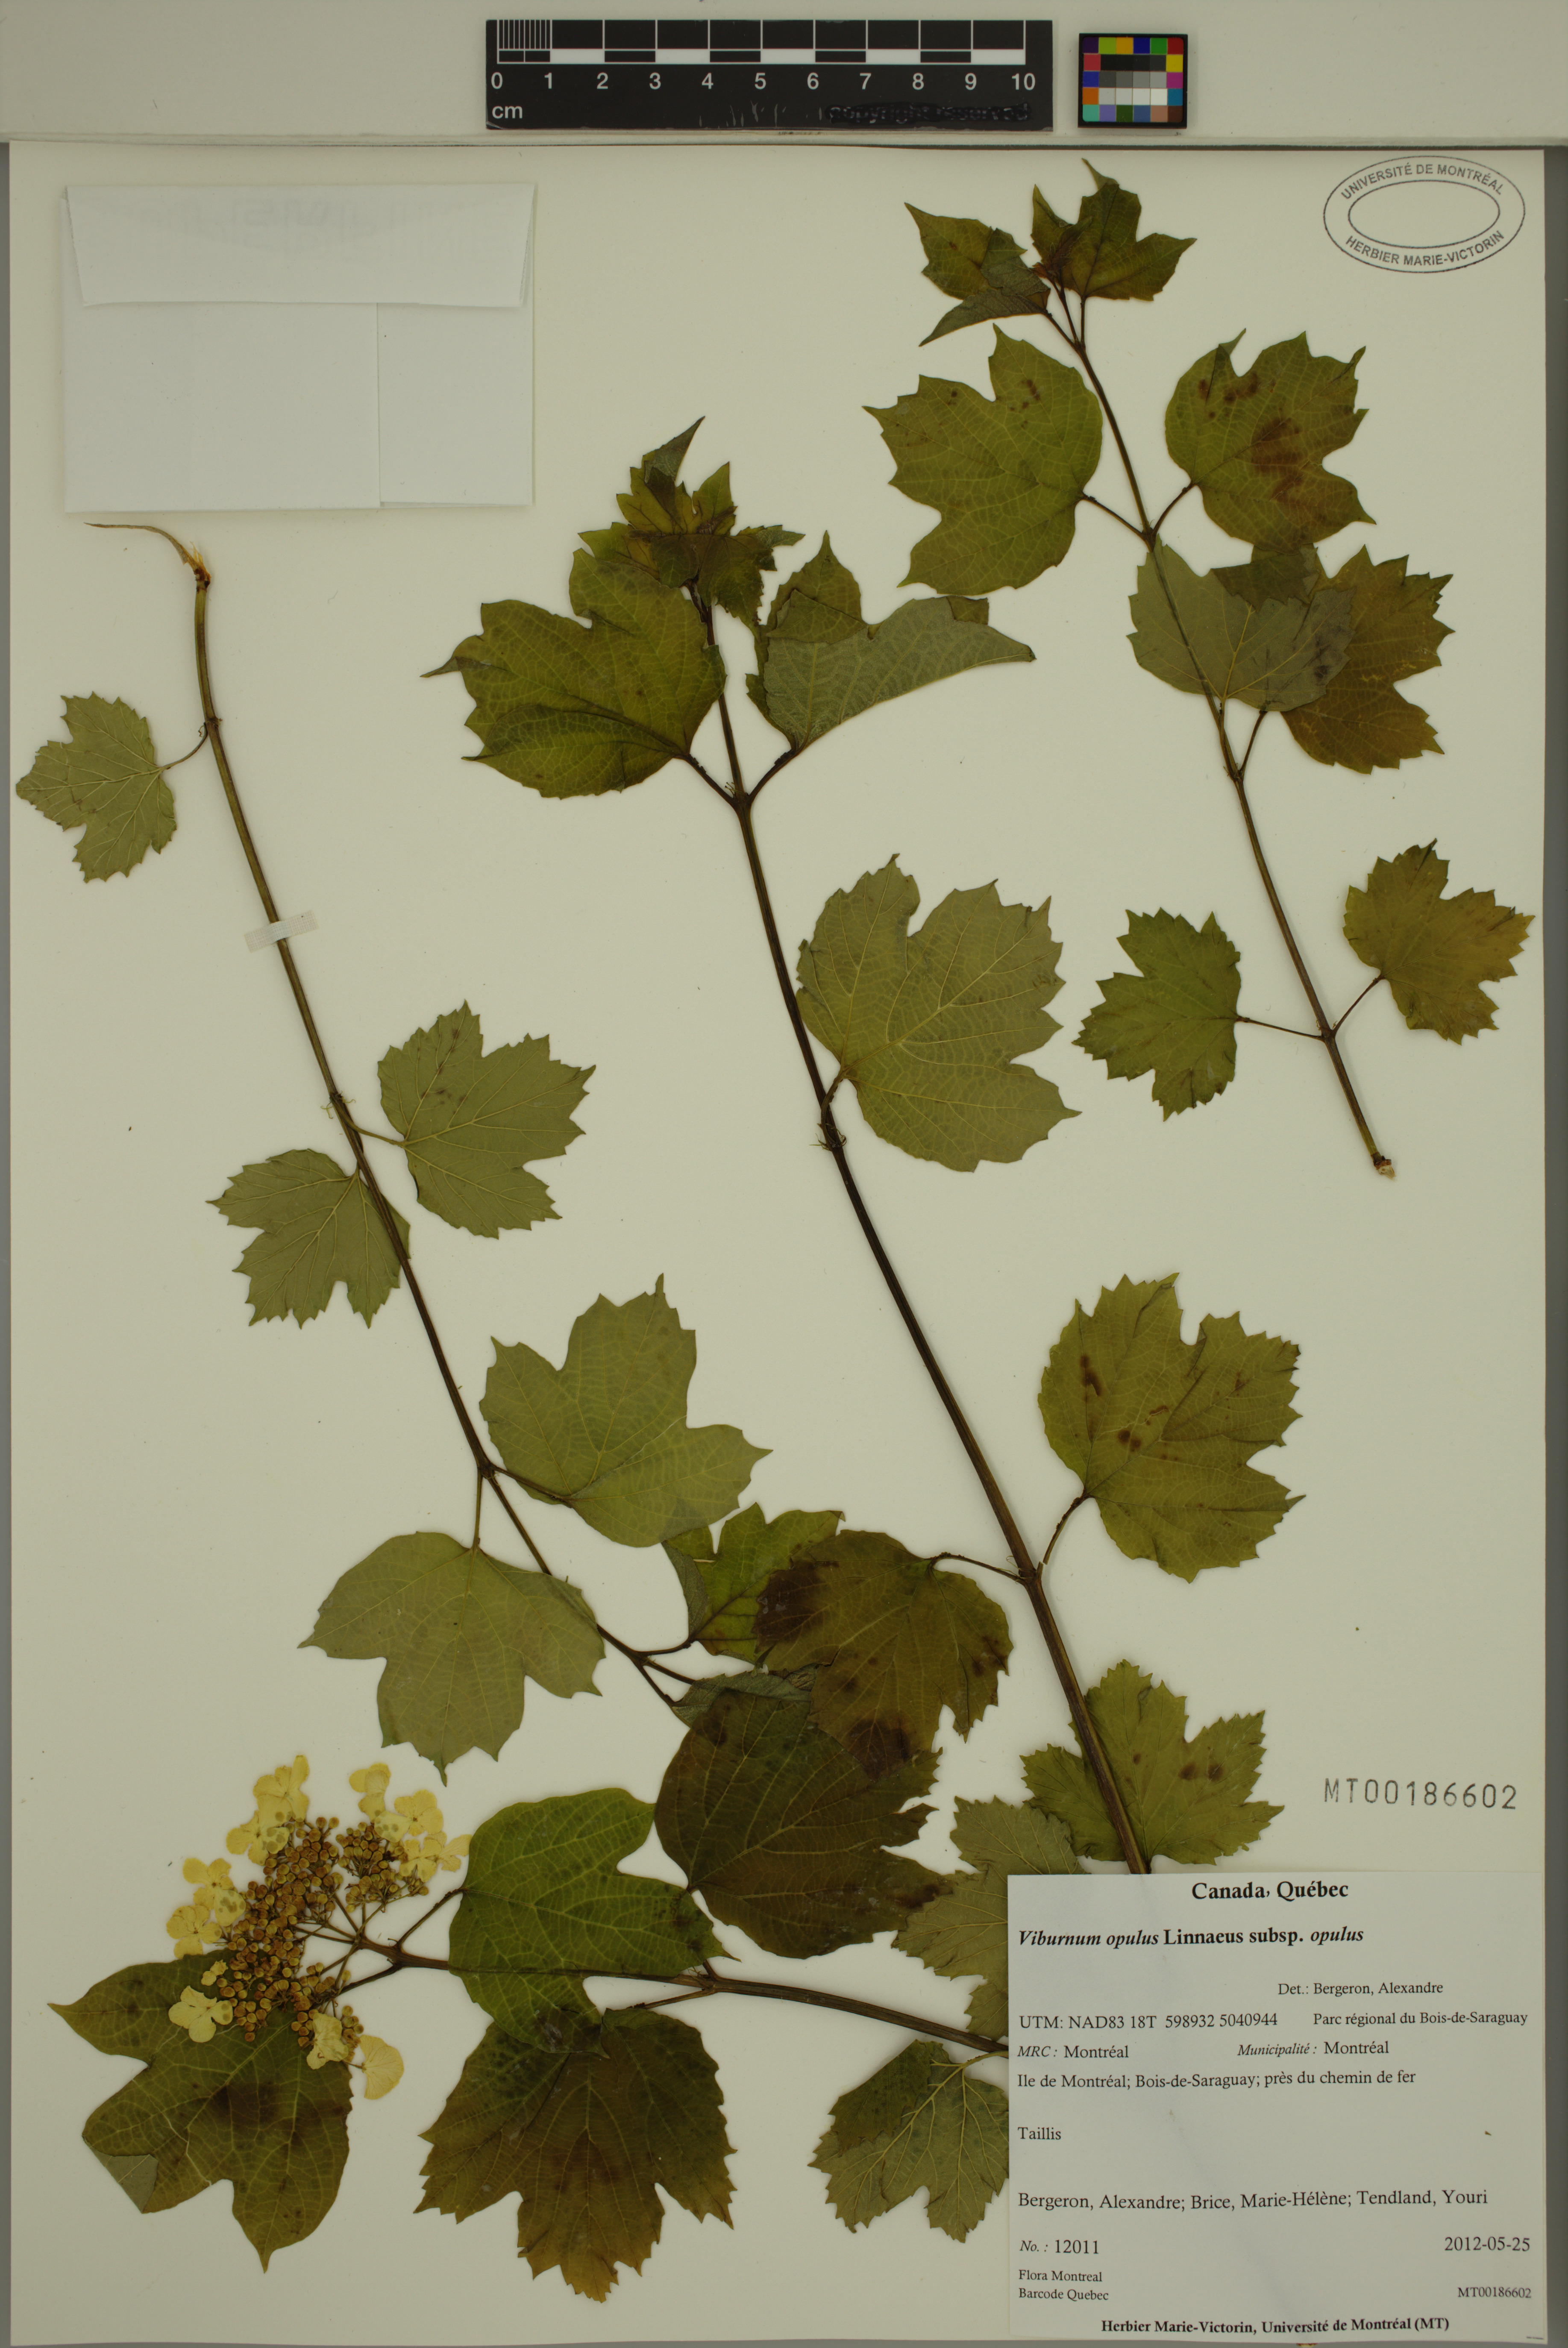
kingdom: Plantae
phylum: Tracheophyta
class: Magnoliopsida
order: Dipsacales
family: Viburnaceae
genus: Viburnum
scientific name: Viburnum opulus
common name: Guelder-rose
